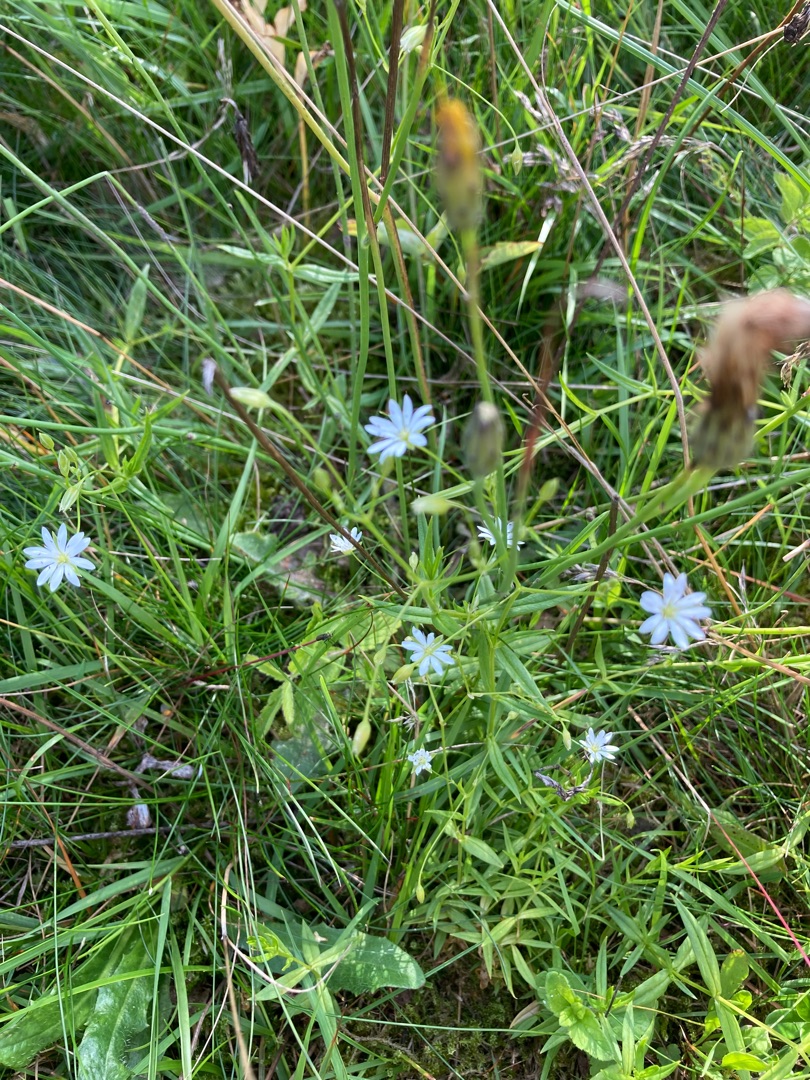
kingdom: Plantae
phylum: Tracheophyta
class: Magnoliopsida
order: Caryophyllales
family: Caryophyllaceae
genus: Stellaria
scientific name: Stellaria graminea
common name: Græsbladet fladstjerne
